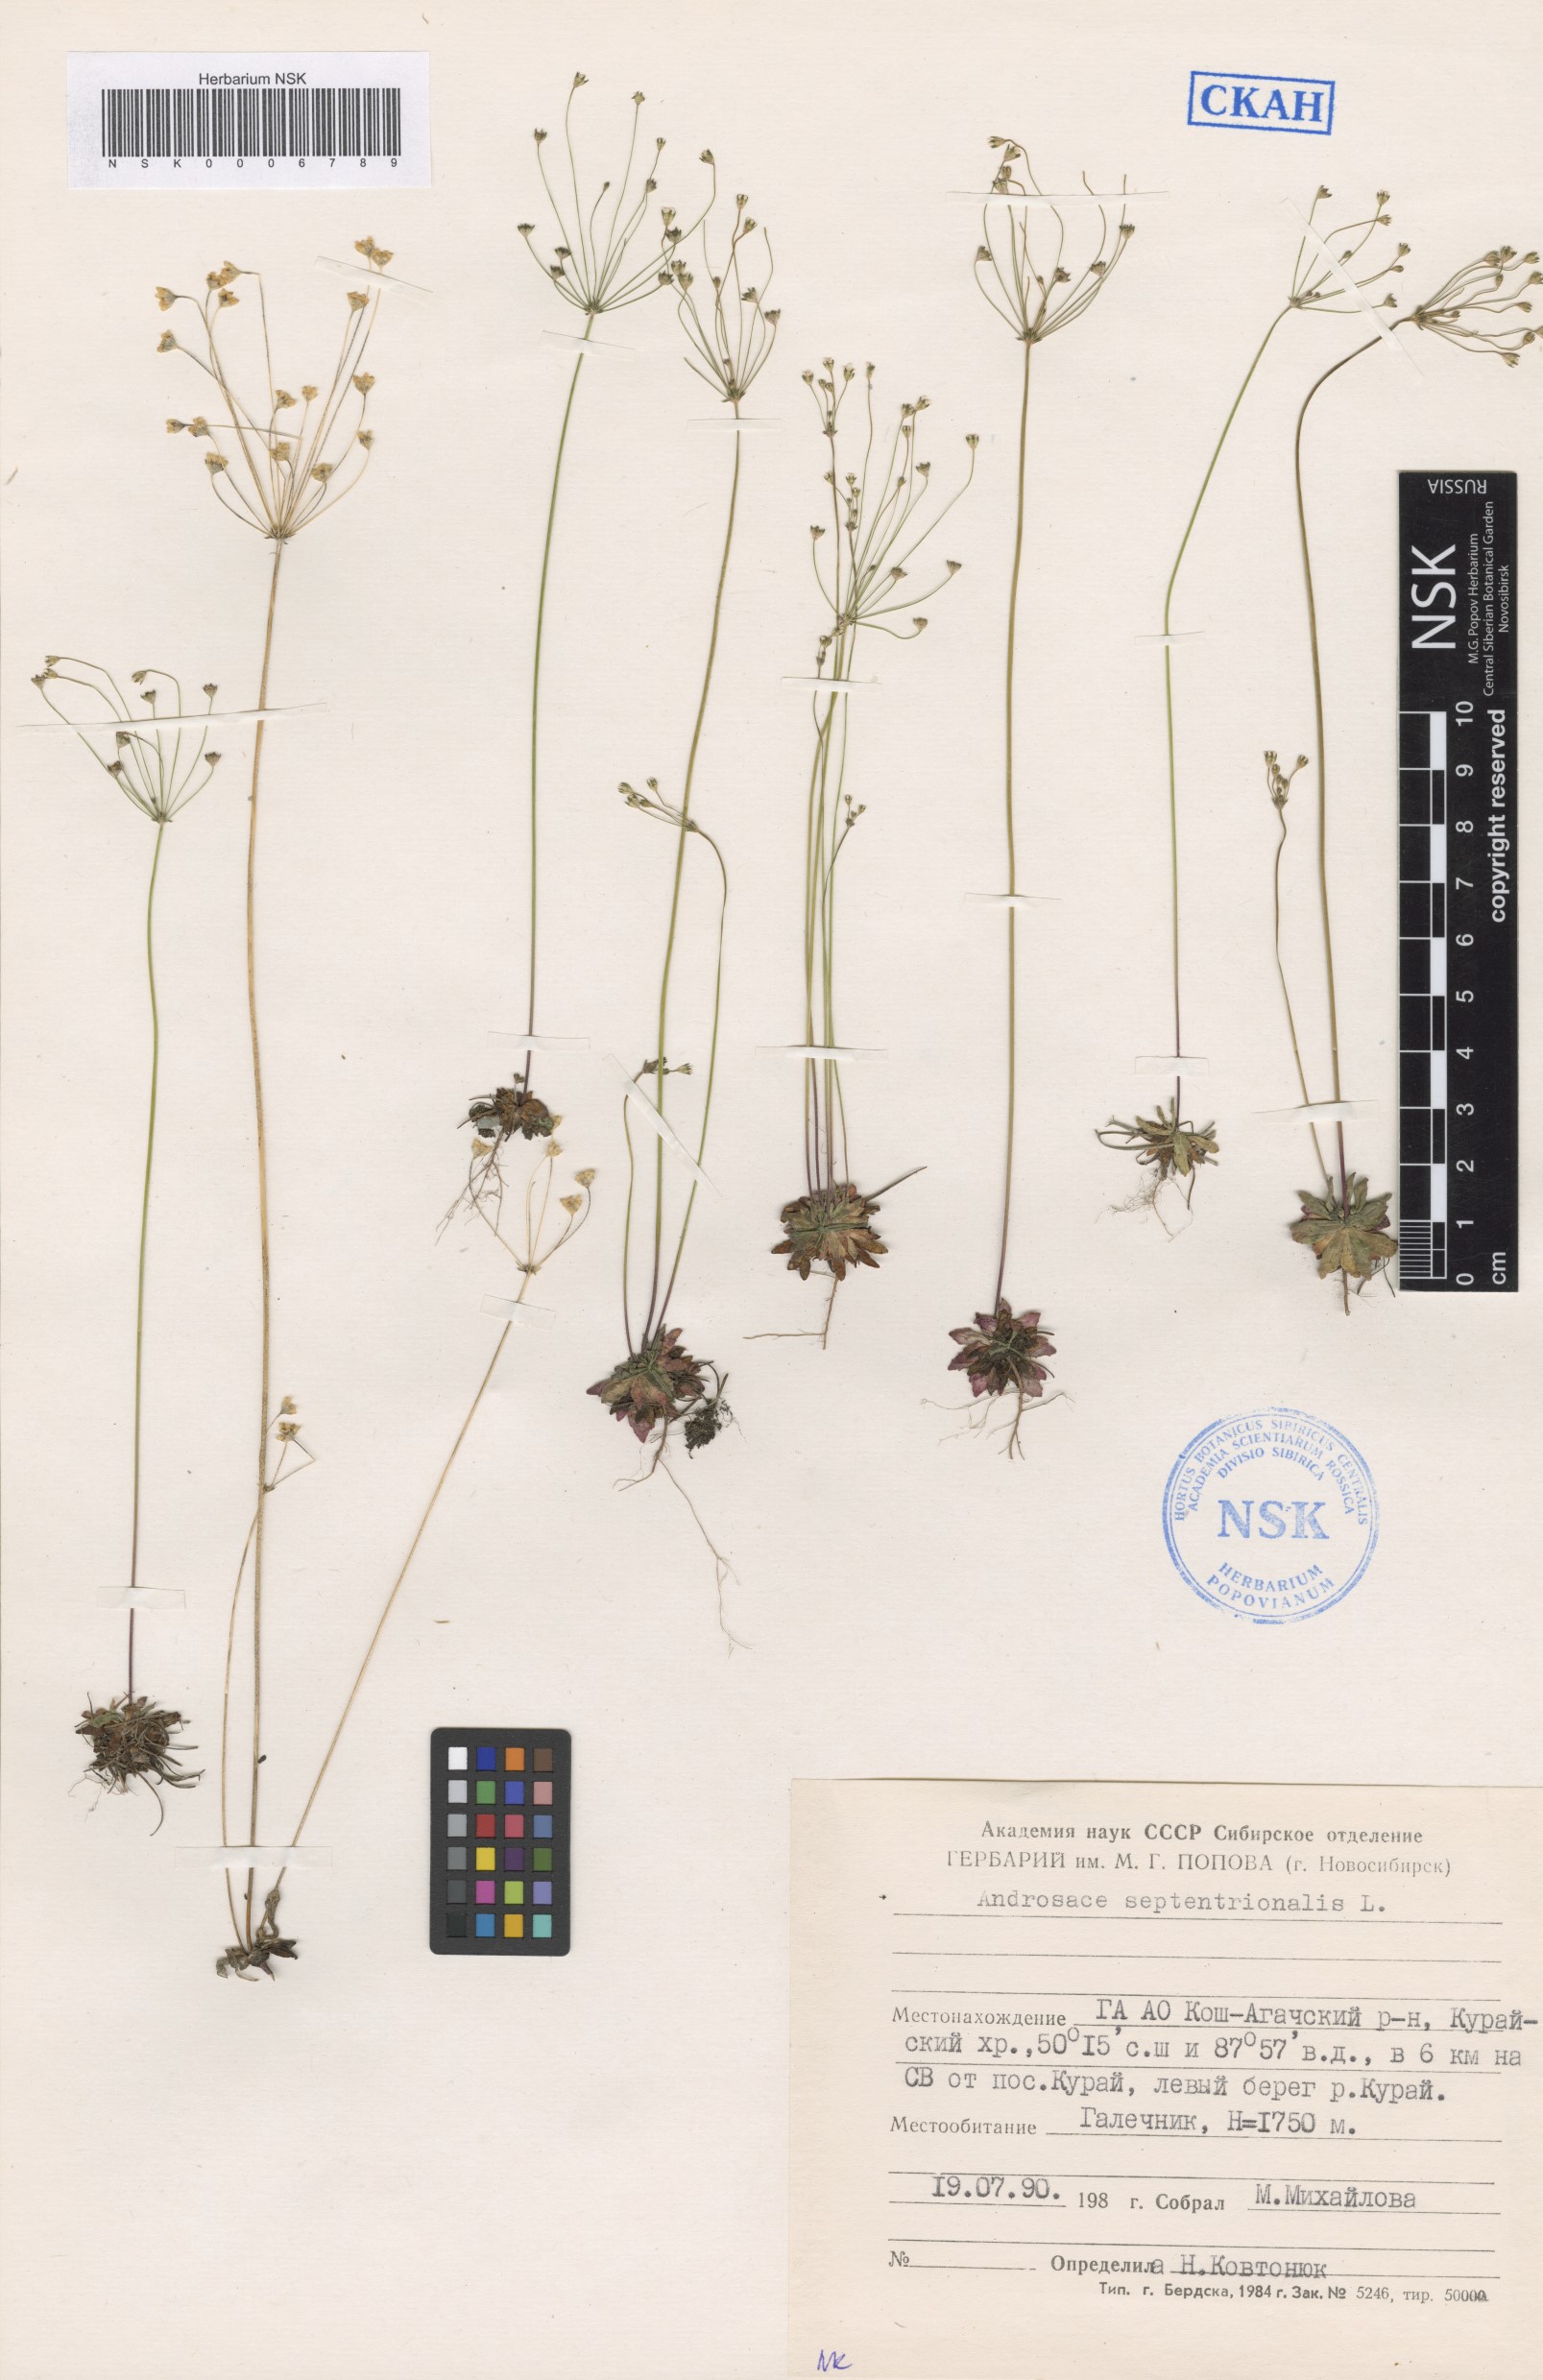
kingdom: Plantae
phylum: Tracheophyta
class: Magnoliopsida
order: Ericales
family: Primulaceae
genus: Androsace
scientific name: Androsace septentrionalis
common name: Hairy northern fairy-candelabra
